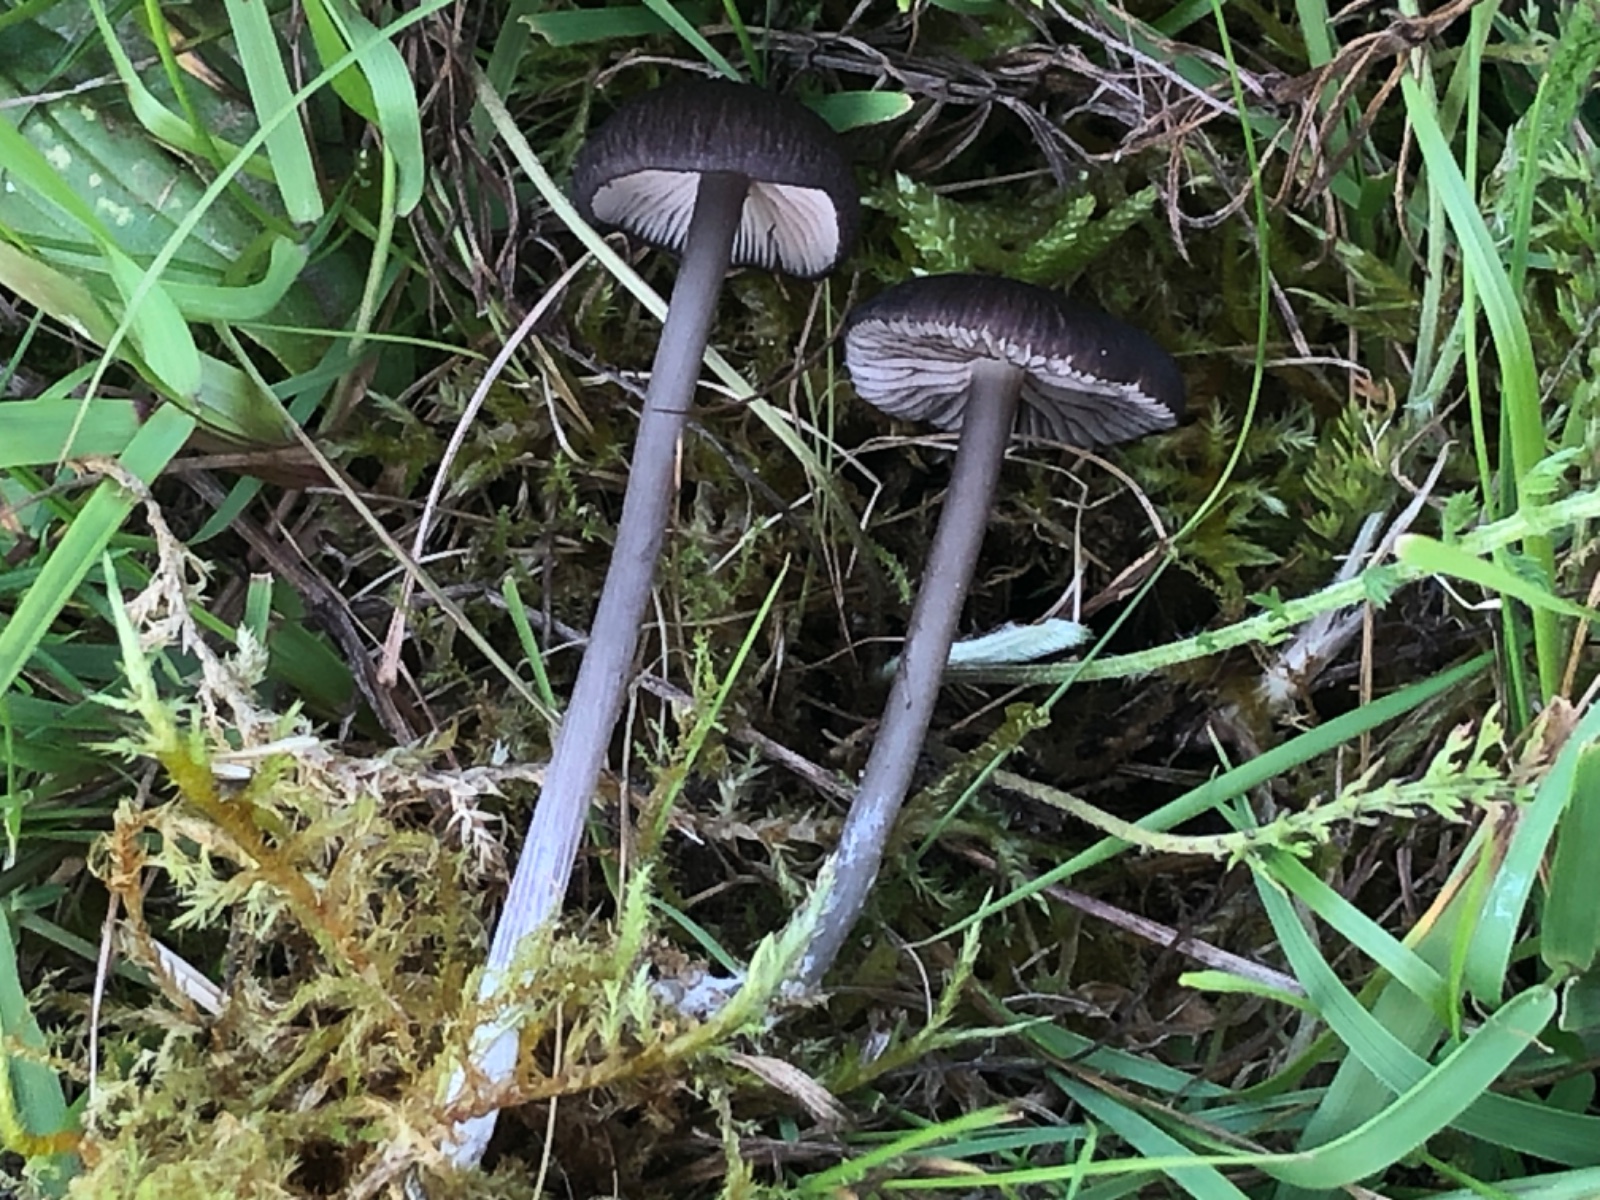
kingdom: Fungi
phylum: Basidiomycota
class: Agaricomycetes
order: Agaricales
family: Entolomataceae
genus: Entoloma
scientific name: Entoloma
